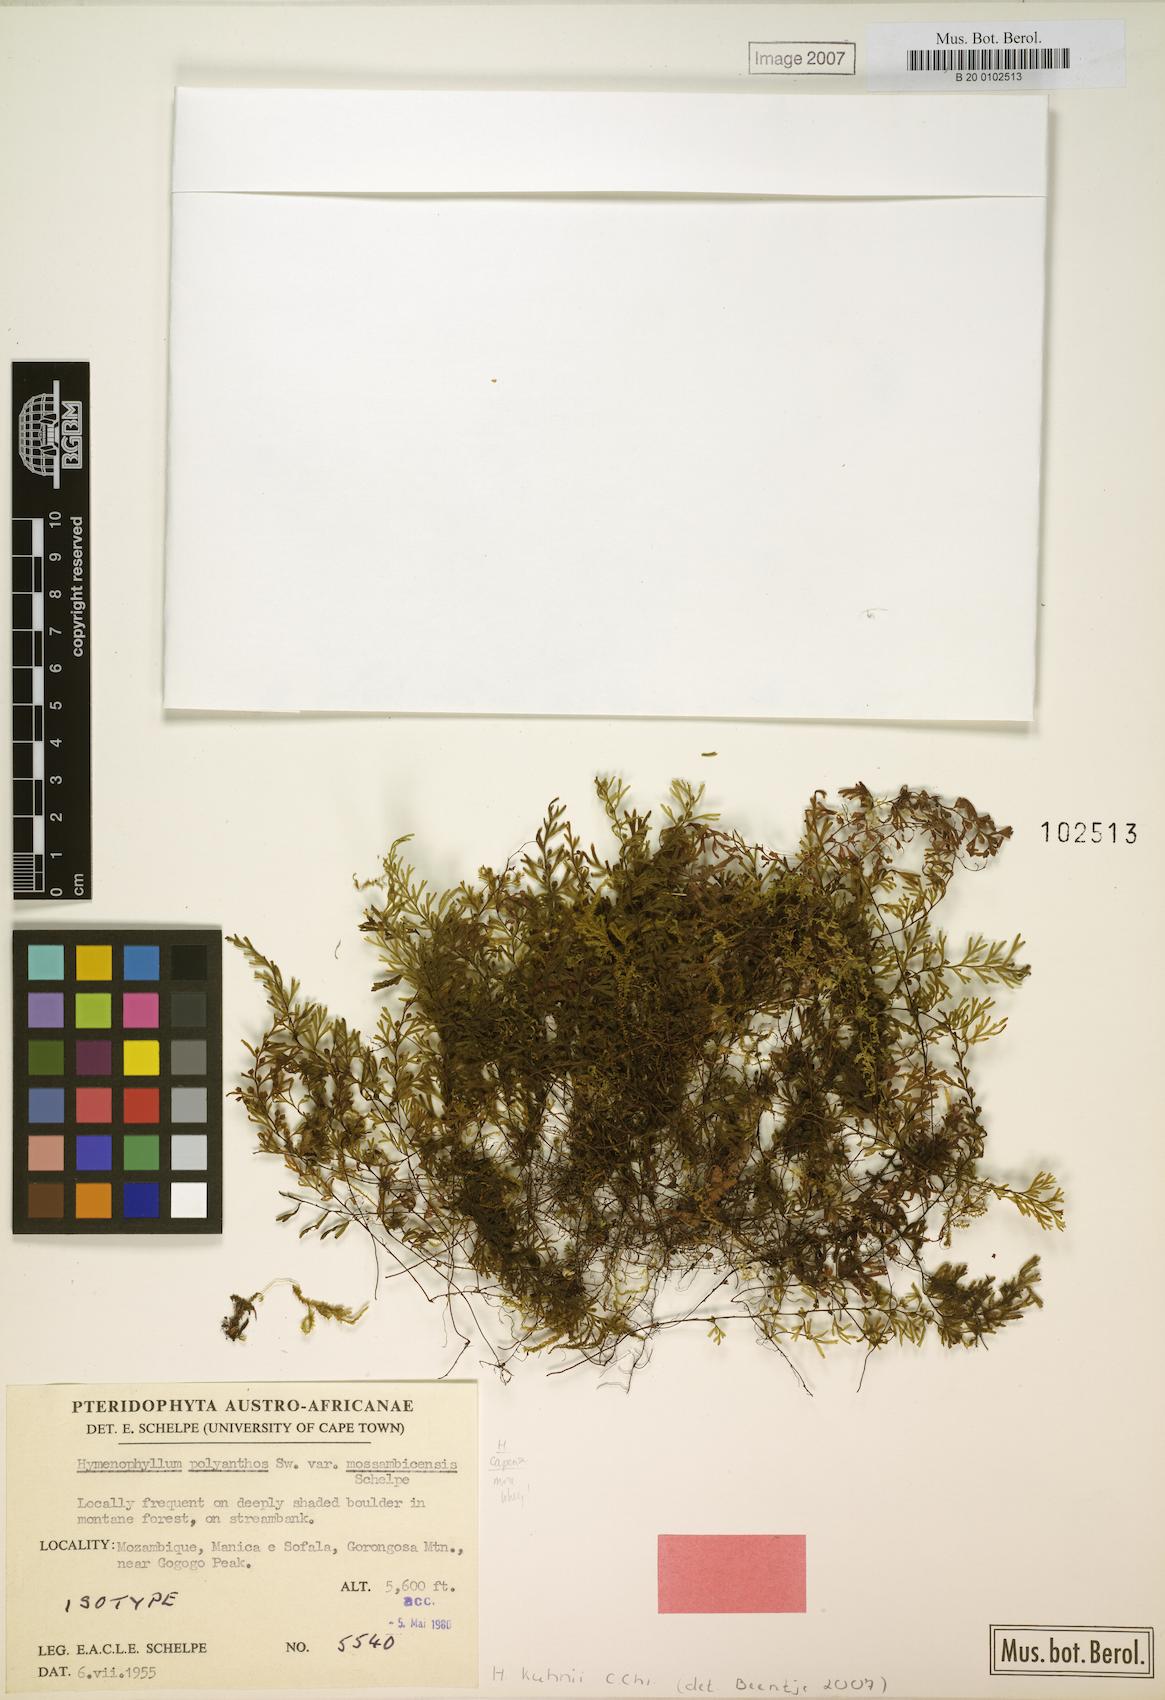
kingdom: Plantae
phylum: Tracheophyta
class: Polypodiopsida
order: Hymenophyllales
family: Hymenophyllaceae
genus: Hymenophyllum
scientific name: Hymenophyllum kuhnii
